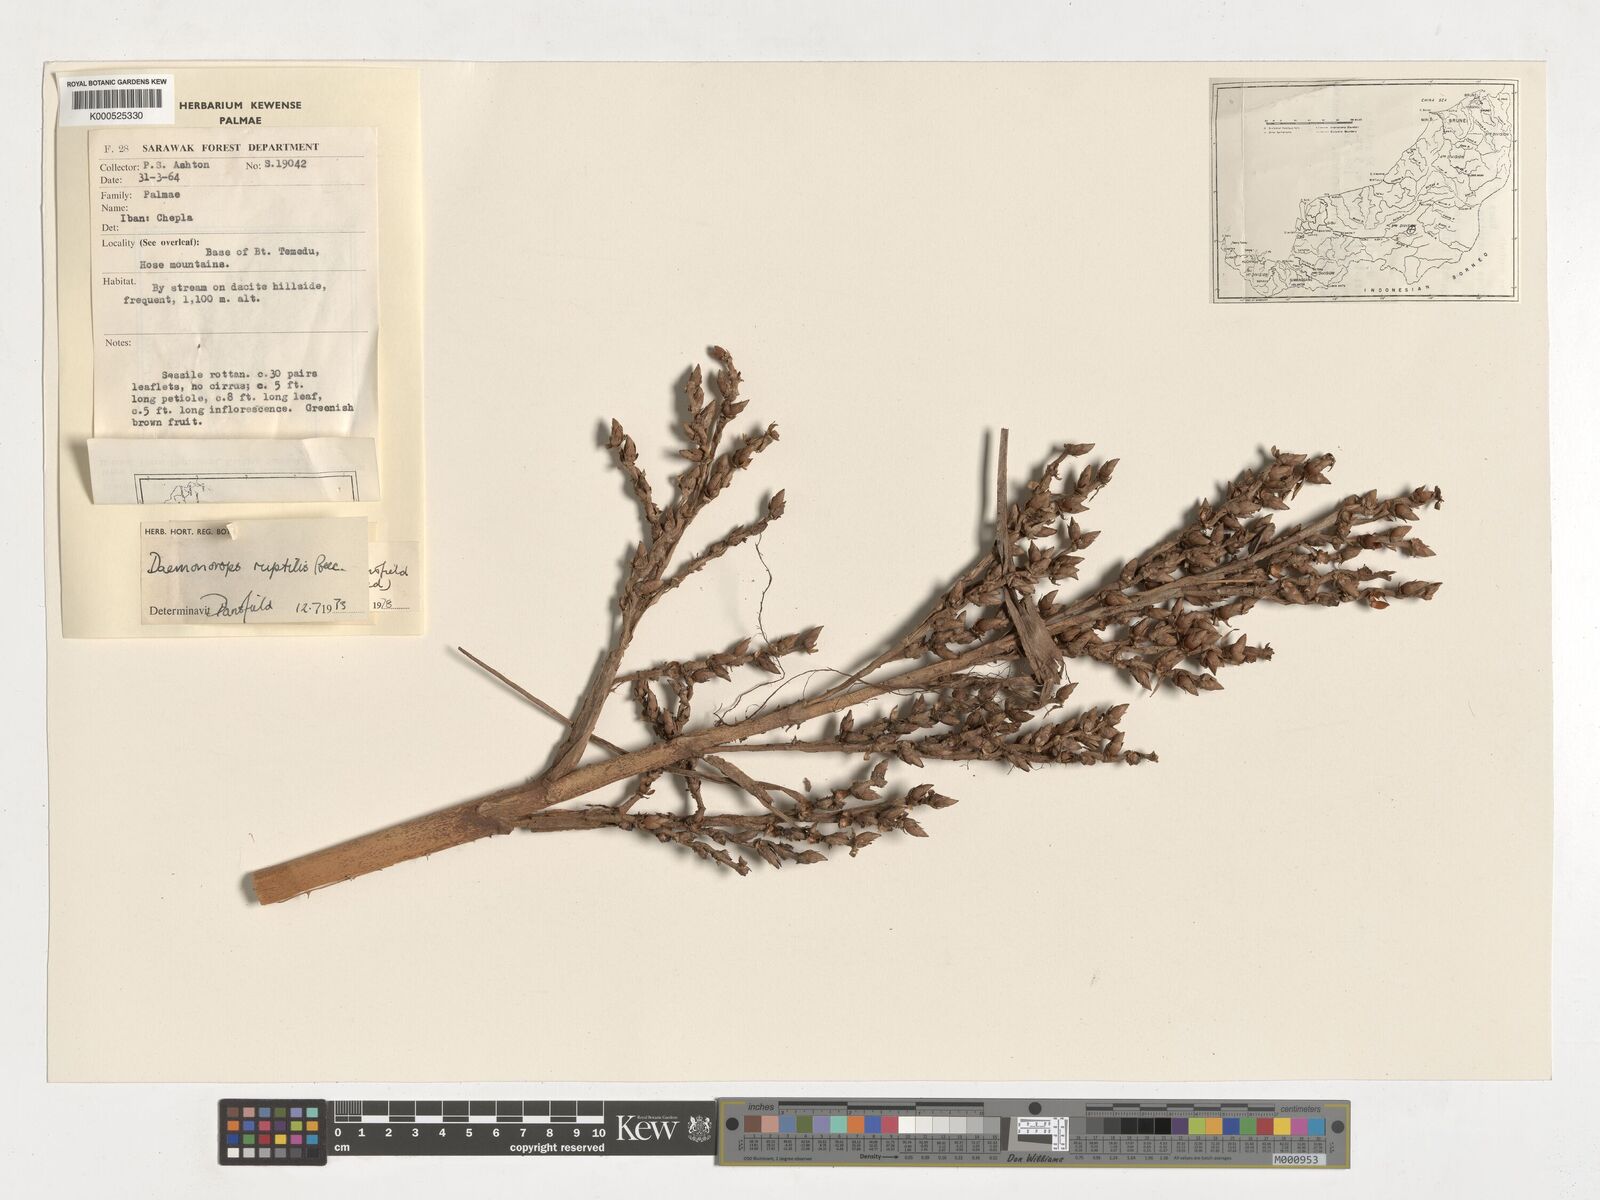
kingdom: Plantae
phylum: Tracheophyta
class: Liliopsida
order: Arecales
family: Arecaceae
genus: Calamus
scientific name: Calamus ingens
